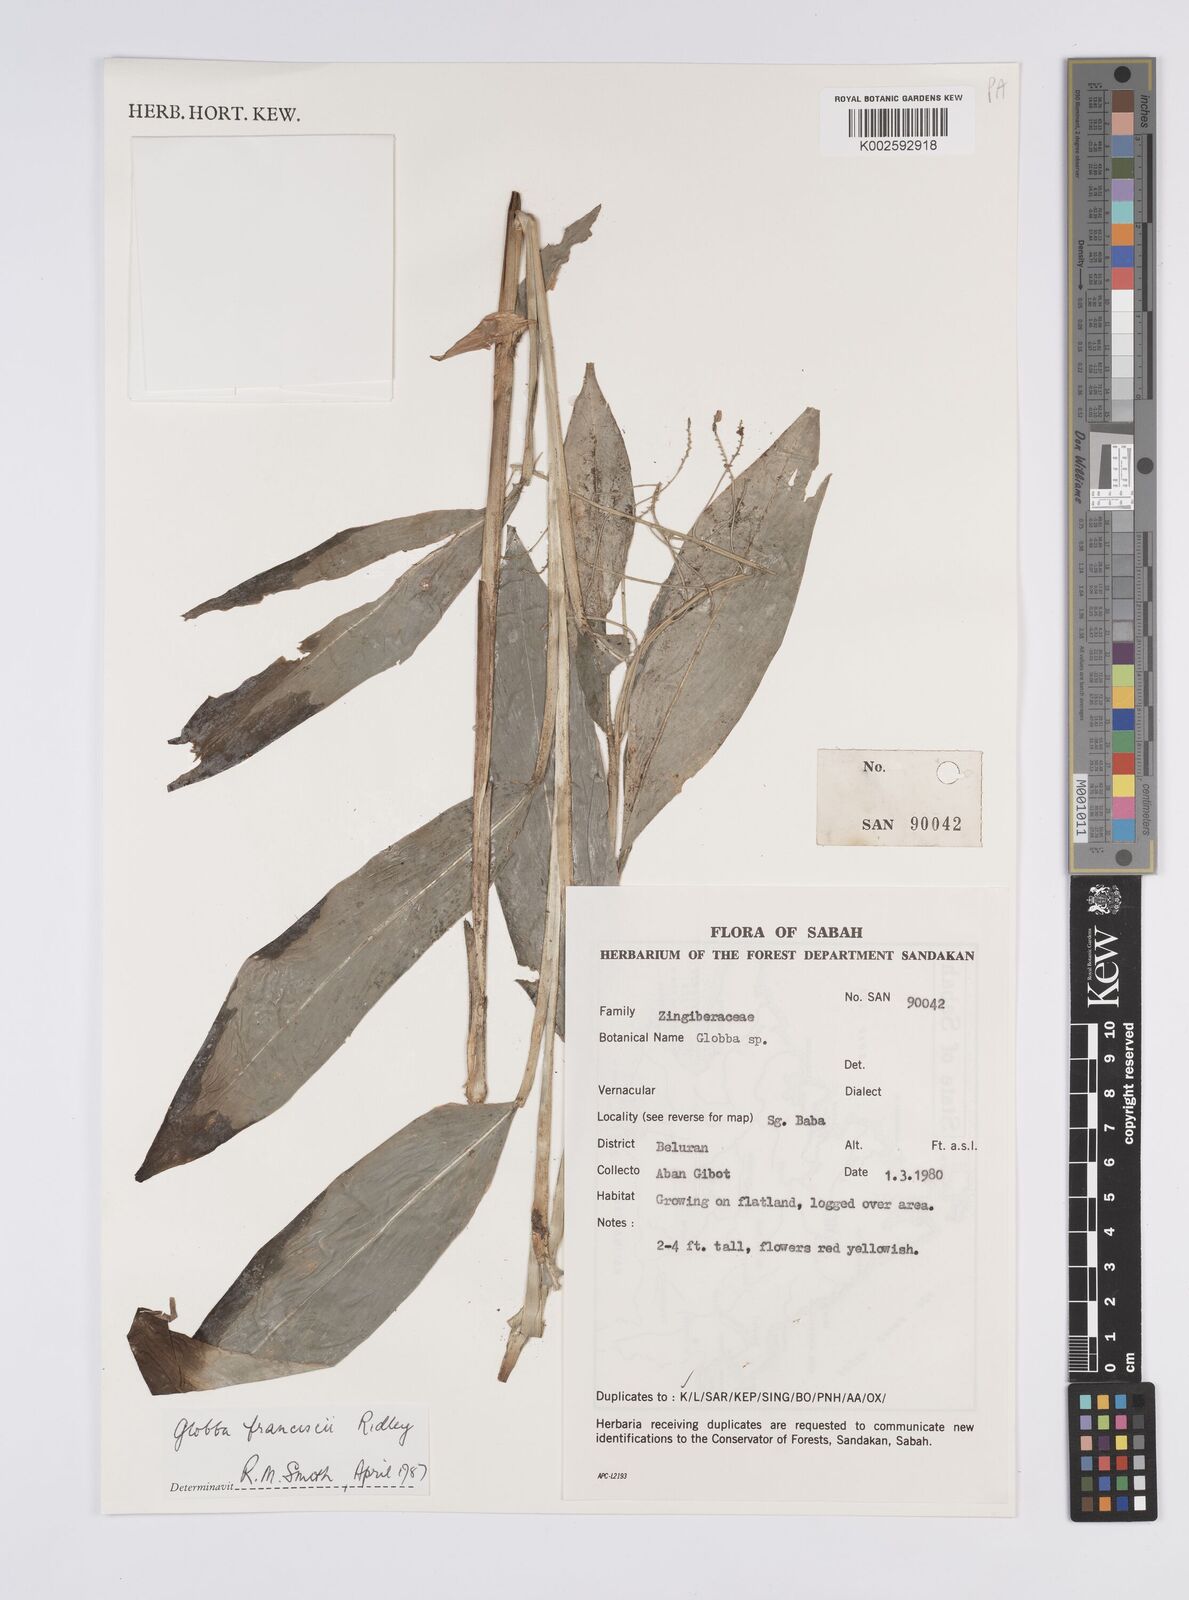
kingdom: Plantae
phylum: Tracheophyta
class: Liliopsida
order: Zingiberales
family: Zingiberaceae
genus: Globba
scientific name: Globba francisci
